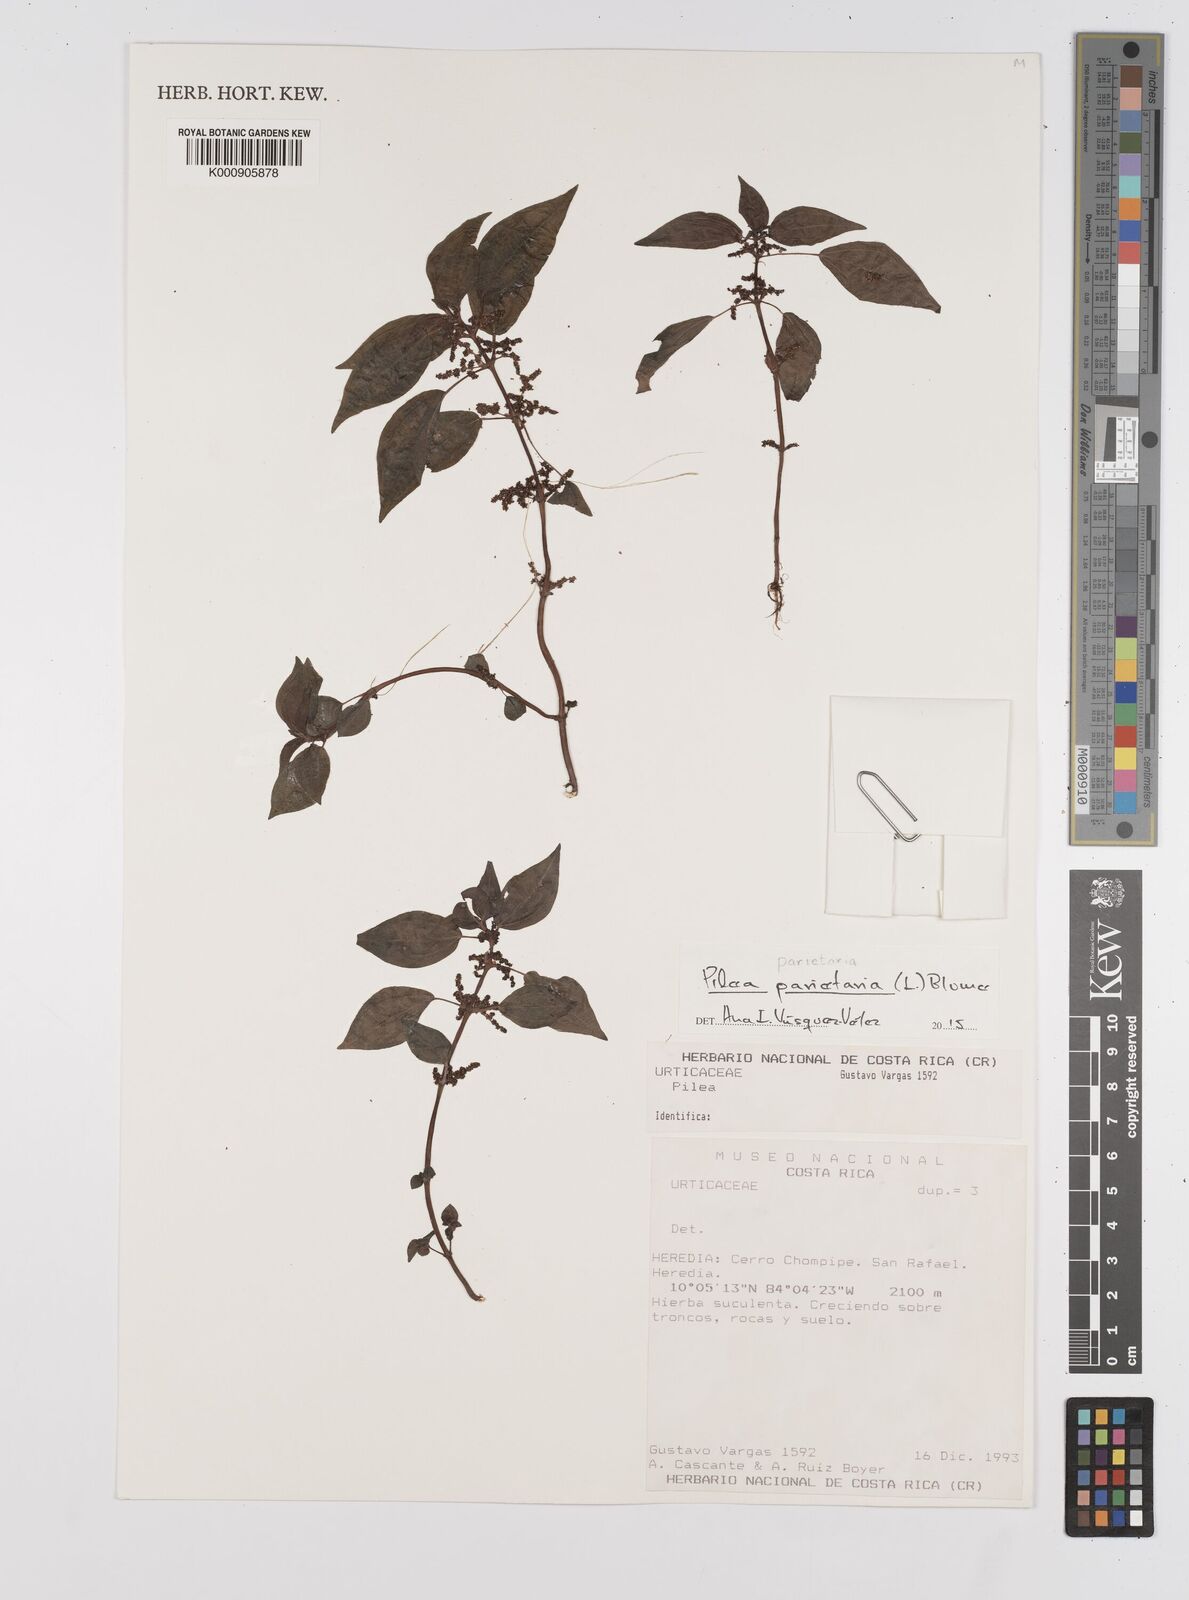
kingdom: Plantae
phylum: Tracheophyta
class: Magnoliopsida
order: Rosales
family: Urticaceae
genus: Pilea
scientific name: Pilea parietaria
